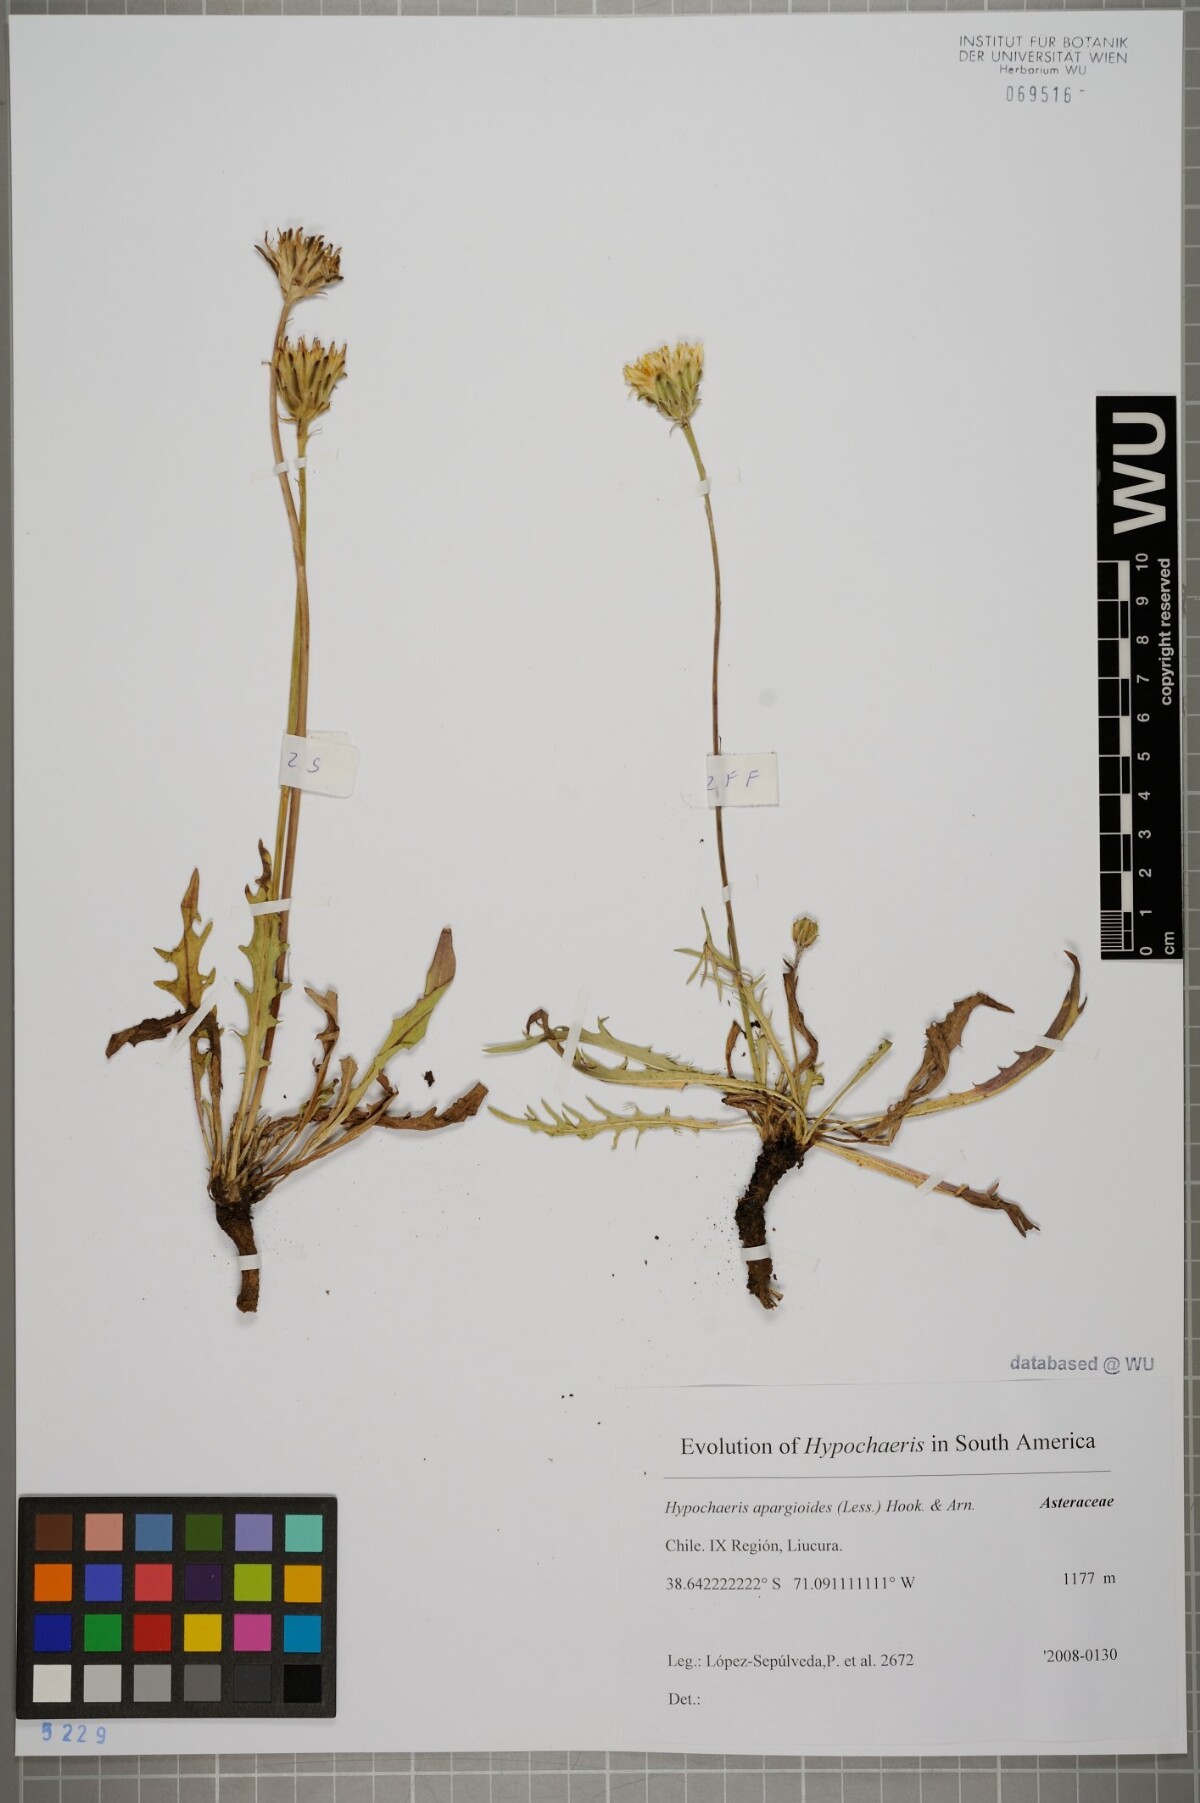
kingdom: Plantae
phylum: Tracheophyta
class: Magnoliopsida
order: Asterales
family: Asteraceae
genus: Hypochaeris
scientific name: Hypochaeris apargioides
